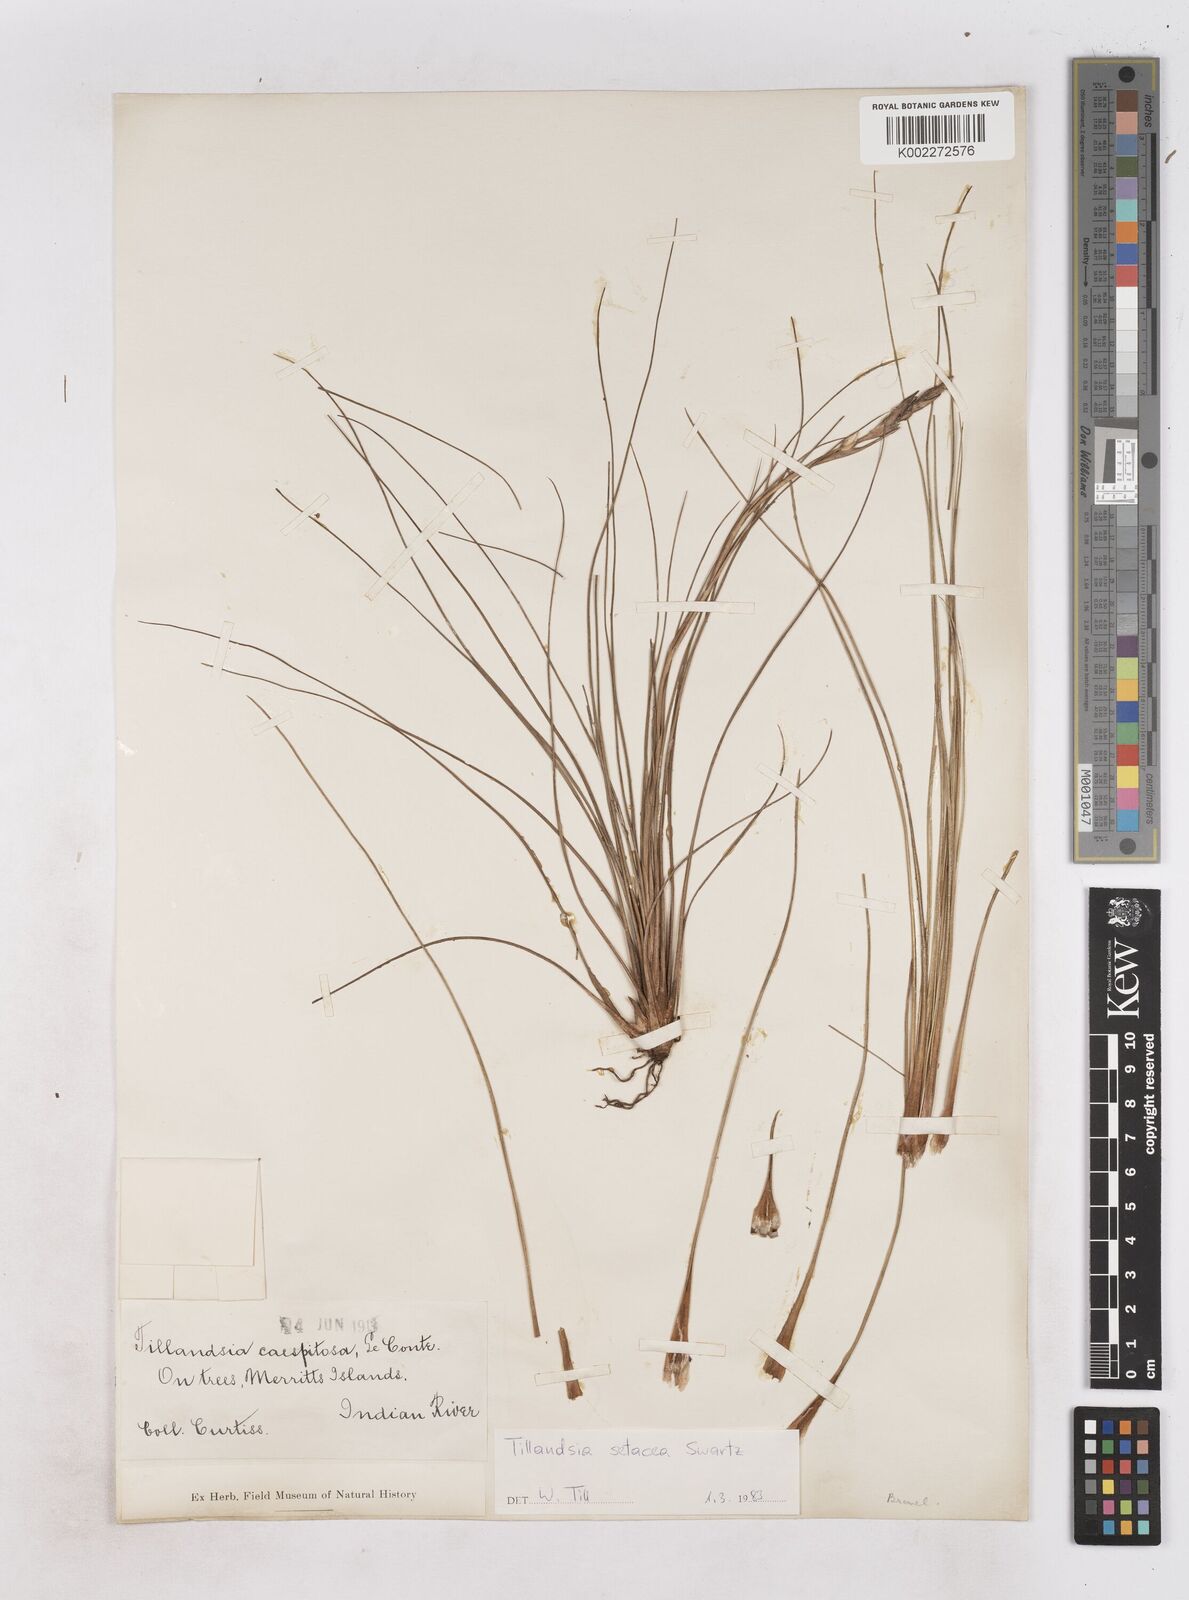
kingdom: Plantae
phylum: Tracheophyta
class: Liliopsida
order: Poales
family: Bromeliaceae
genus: Tillandsia
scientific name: Tillandsia
